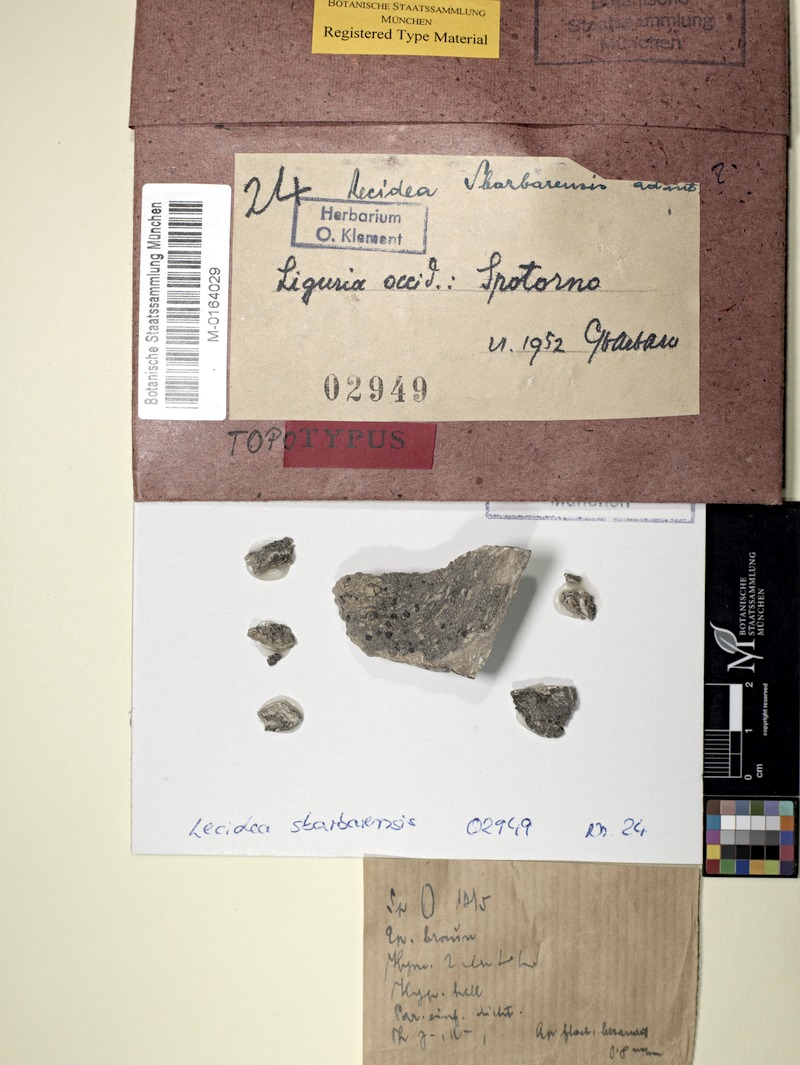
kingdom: Fungi
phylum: Ascomycota
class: Lecanoromycetes
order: Lecideales
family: Lecideaceae
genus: Lecidea
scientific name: Lecidea
